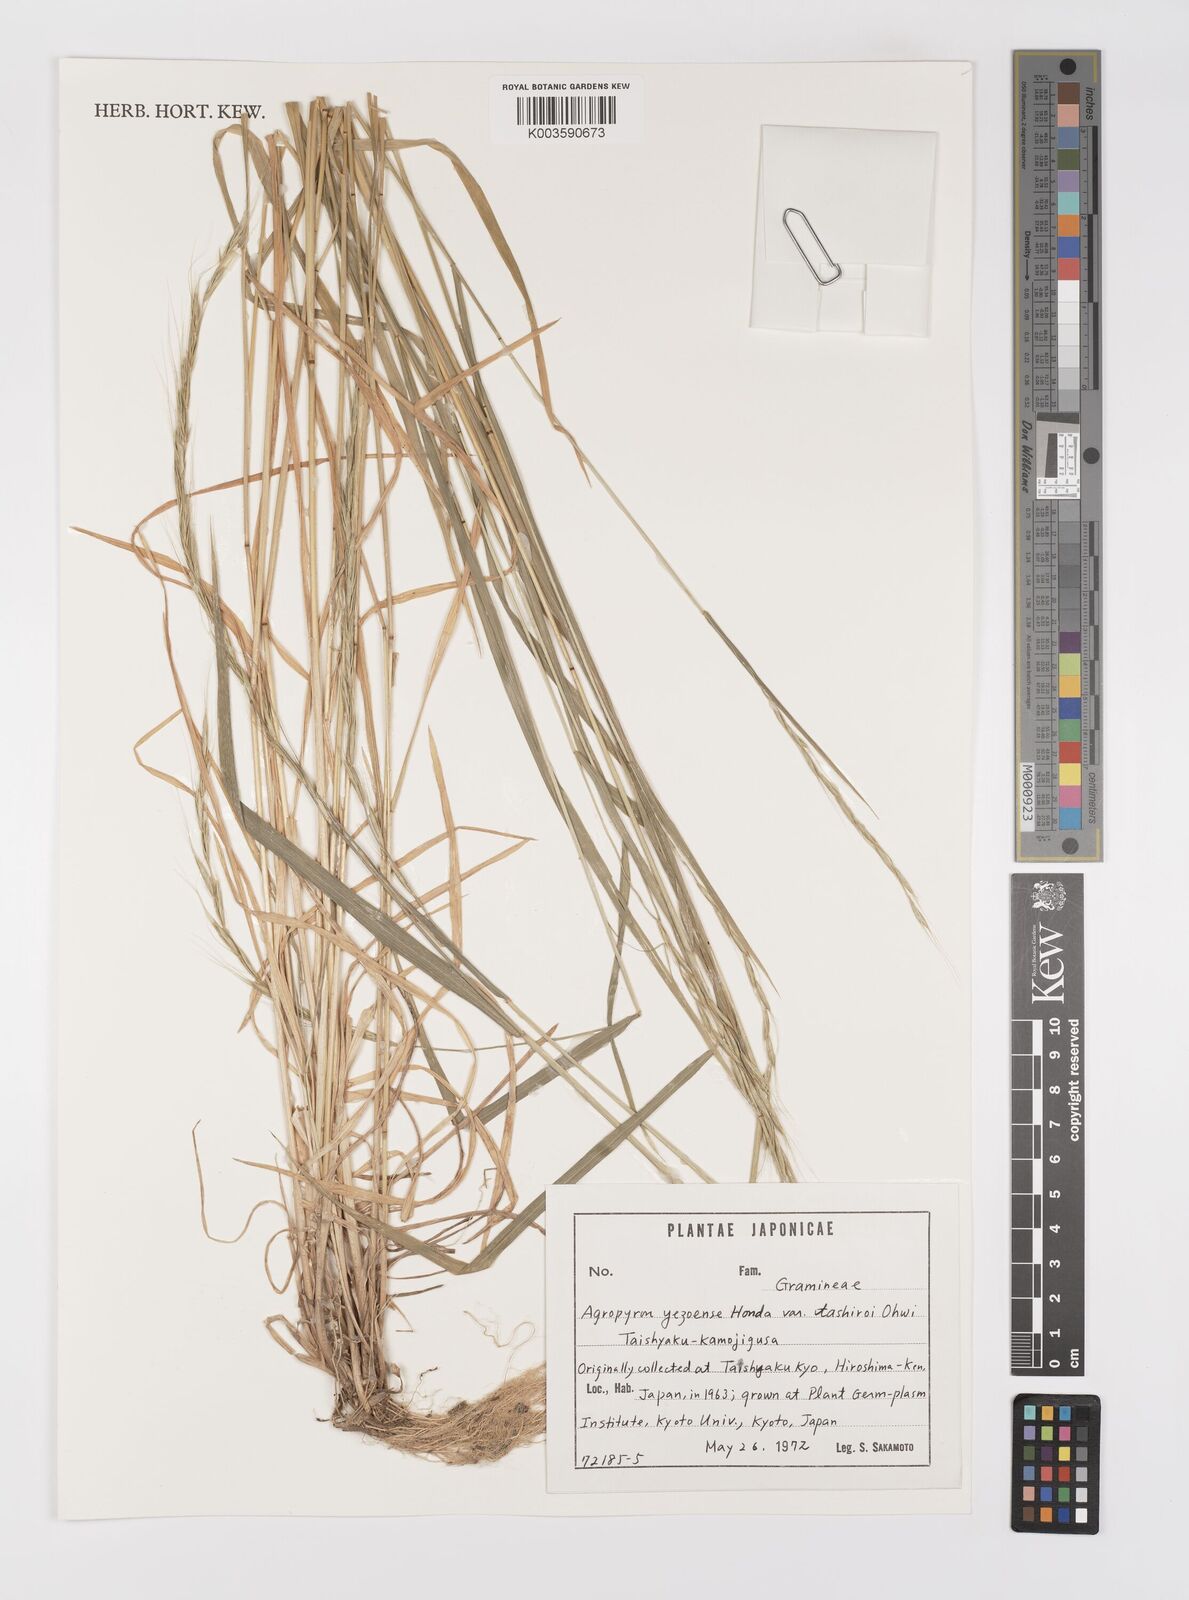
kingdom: Plantae
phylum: Tracheophyta
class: Liliopsida
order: Poales
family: Poaceae
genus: Elymus
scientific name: Elymus nipponicus
